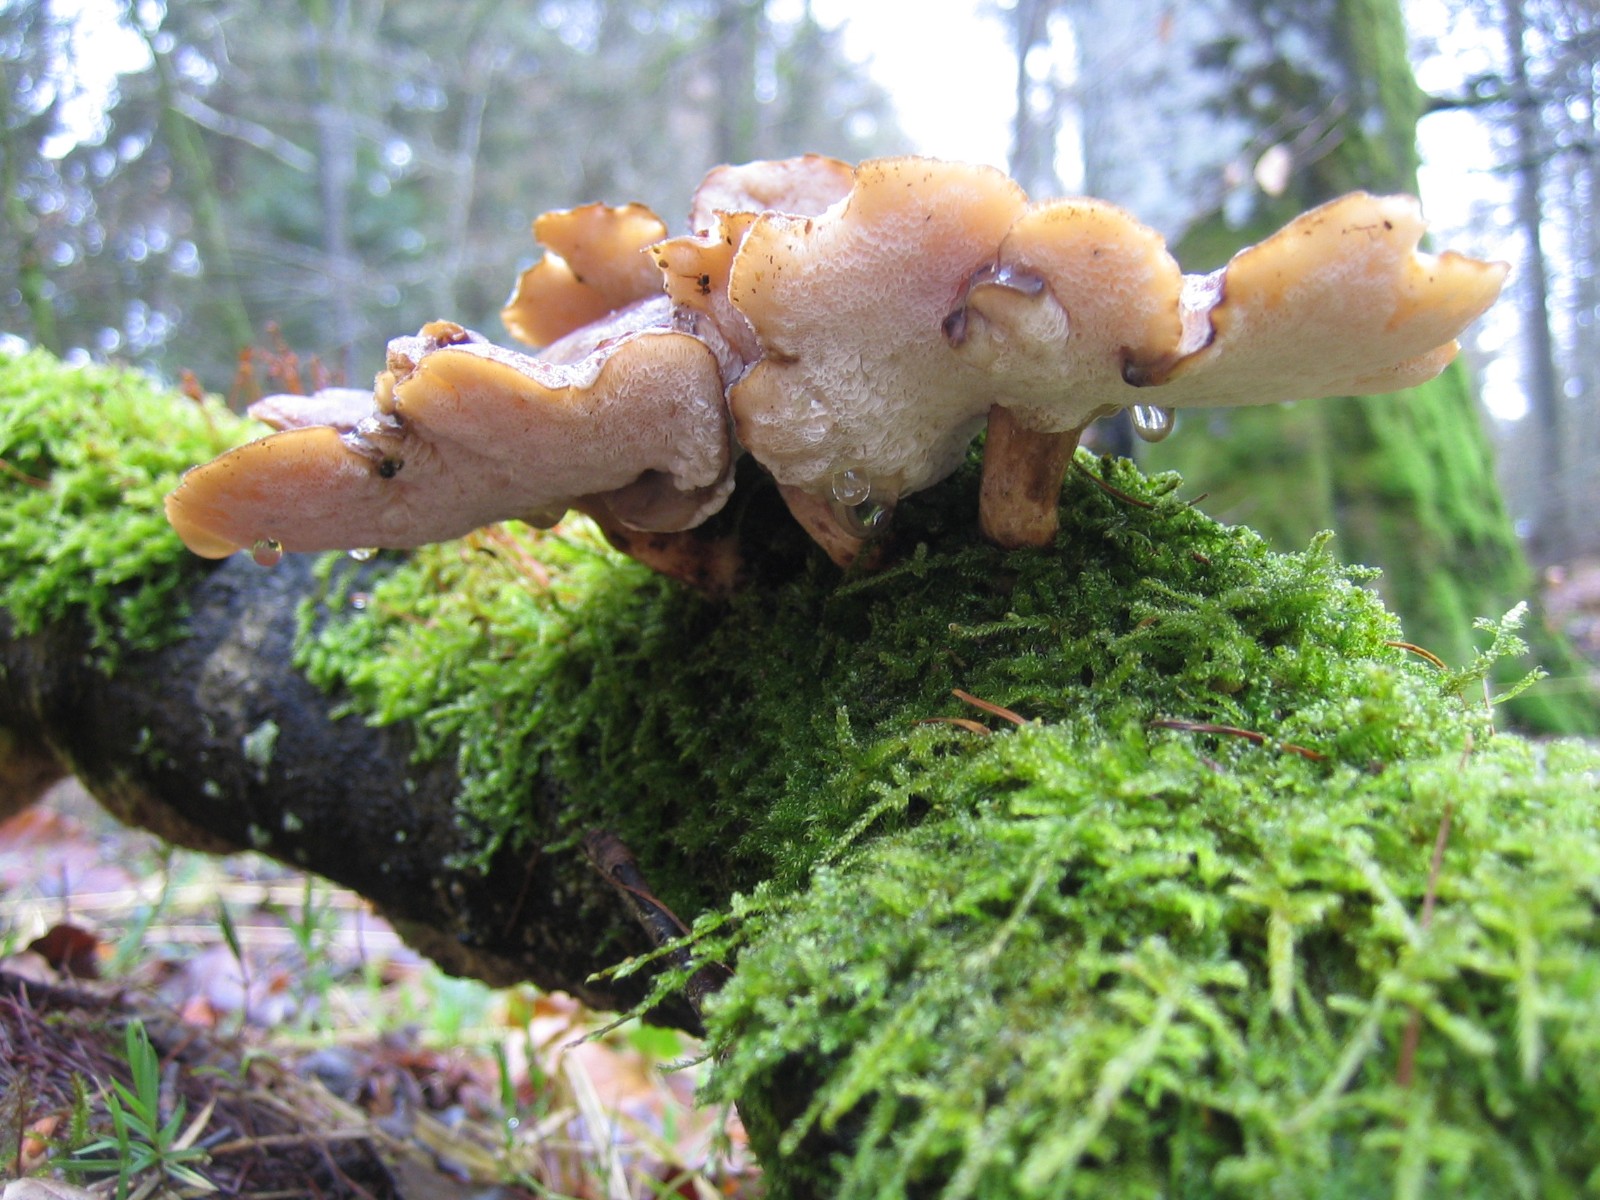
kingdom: Fungi
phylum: Basidiomycota
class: Agaricomycetes
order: Polyporales
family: Polyporaceae
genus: Lentinus
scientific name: Lentinus brumalis
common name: vinter-stilkporesvamp
